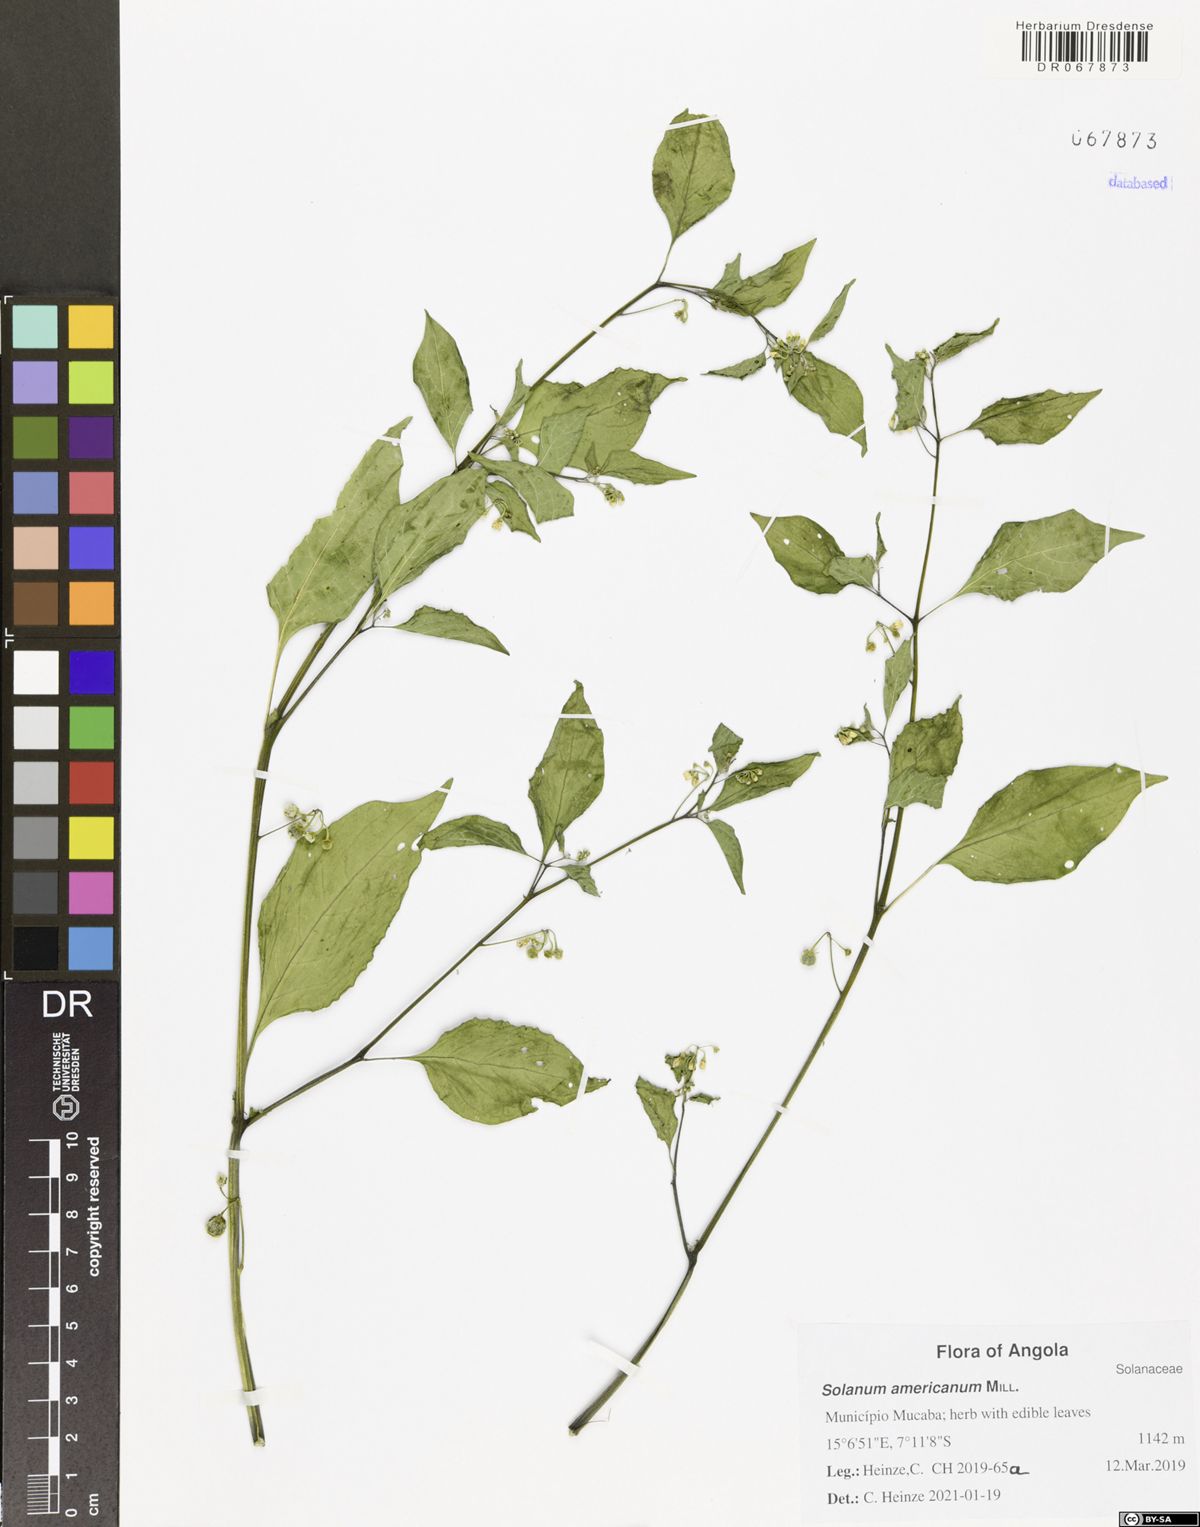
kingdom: Plantae
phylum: Tracheophyta
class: Magnoliopsida
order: Solanales
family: Solanaceae
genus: Solanum
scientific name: Solanum americanum
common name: American black nightshade
